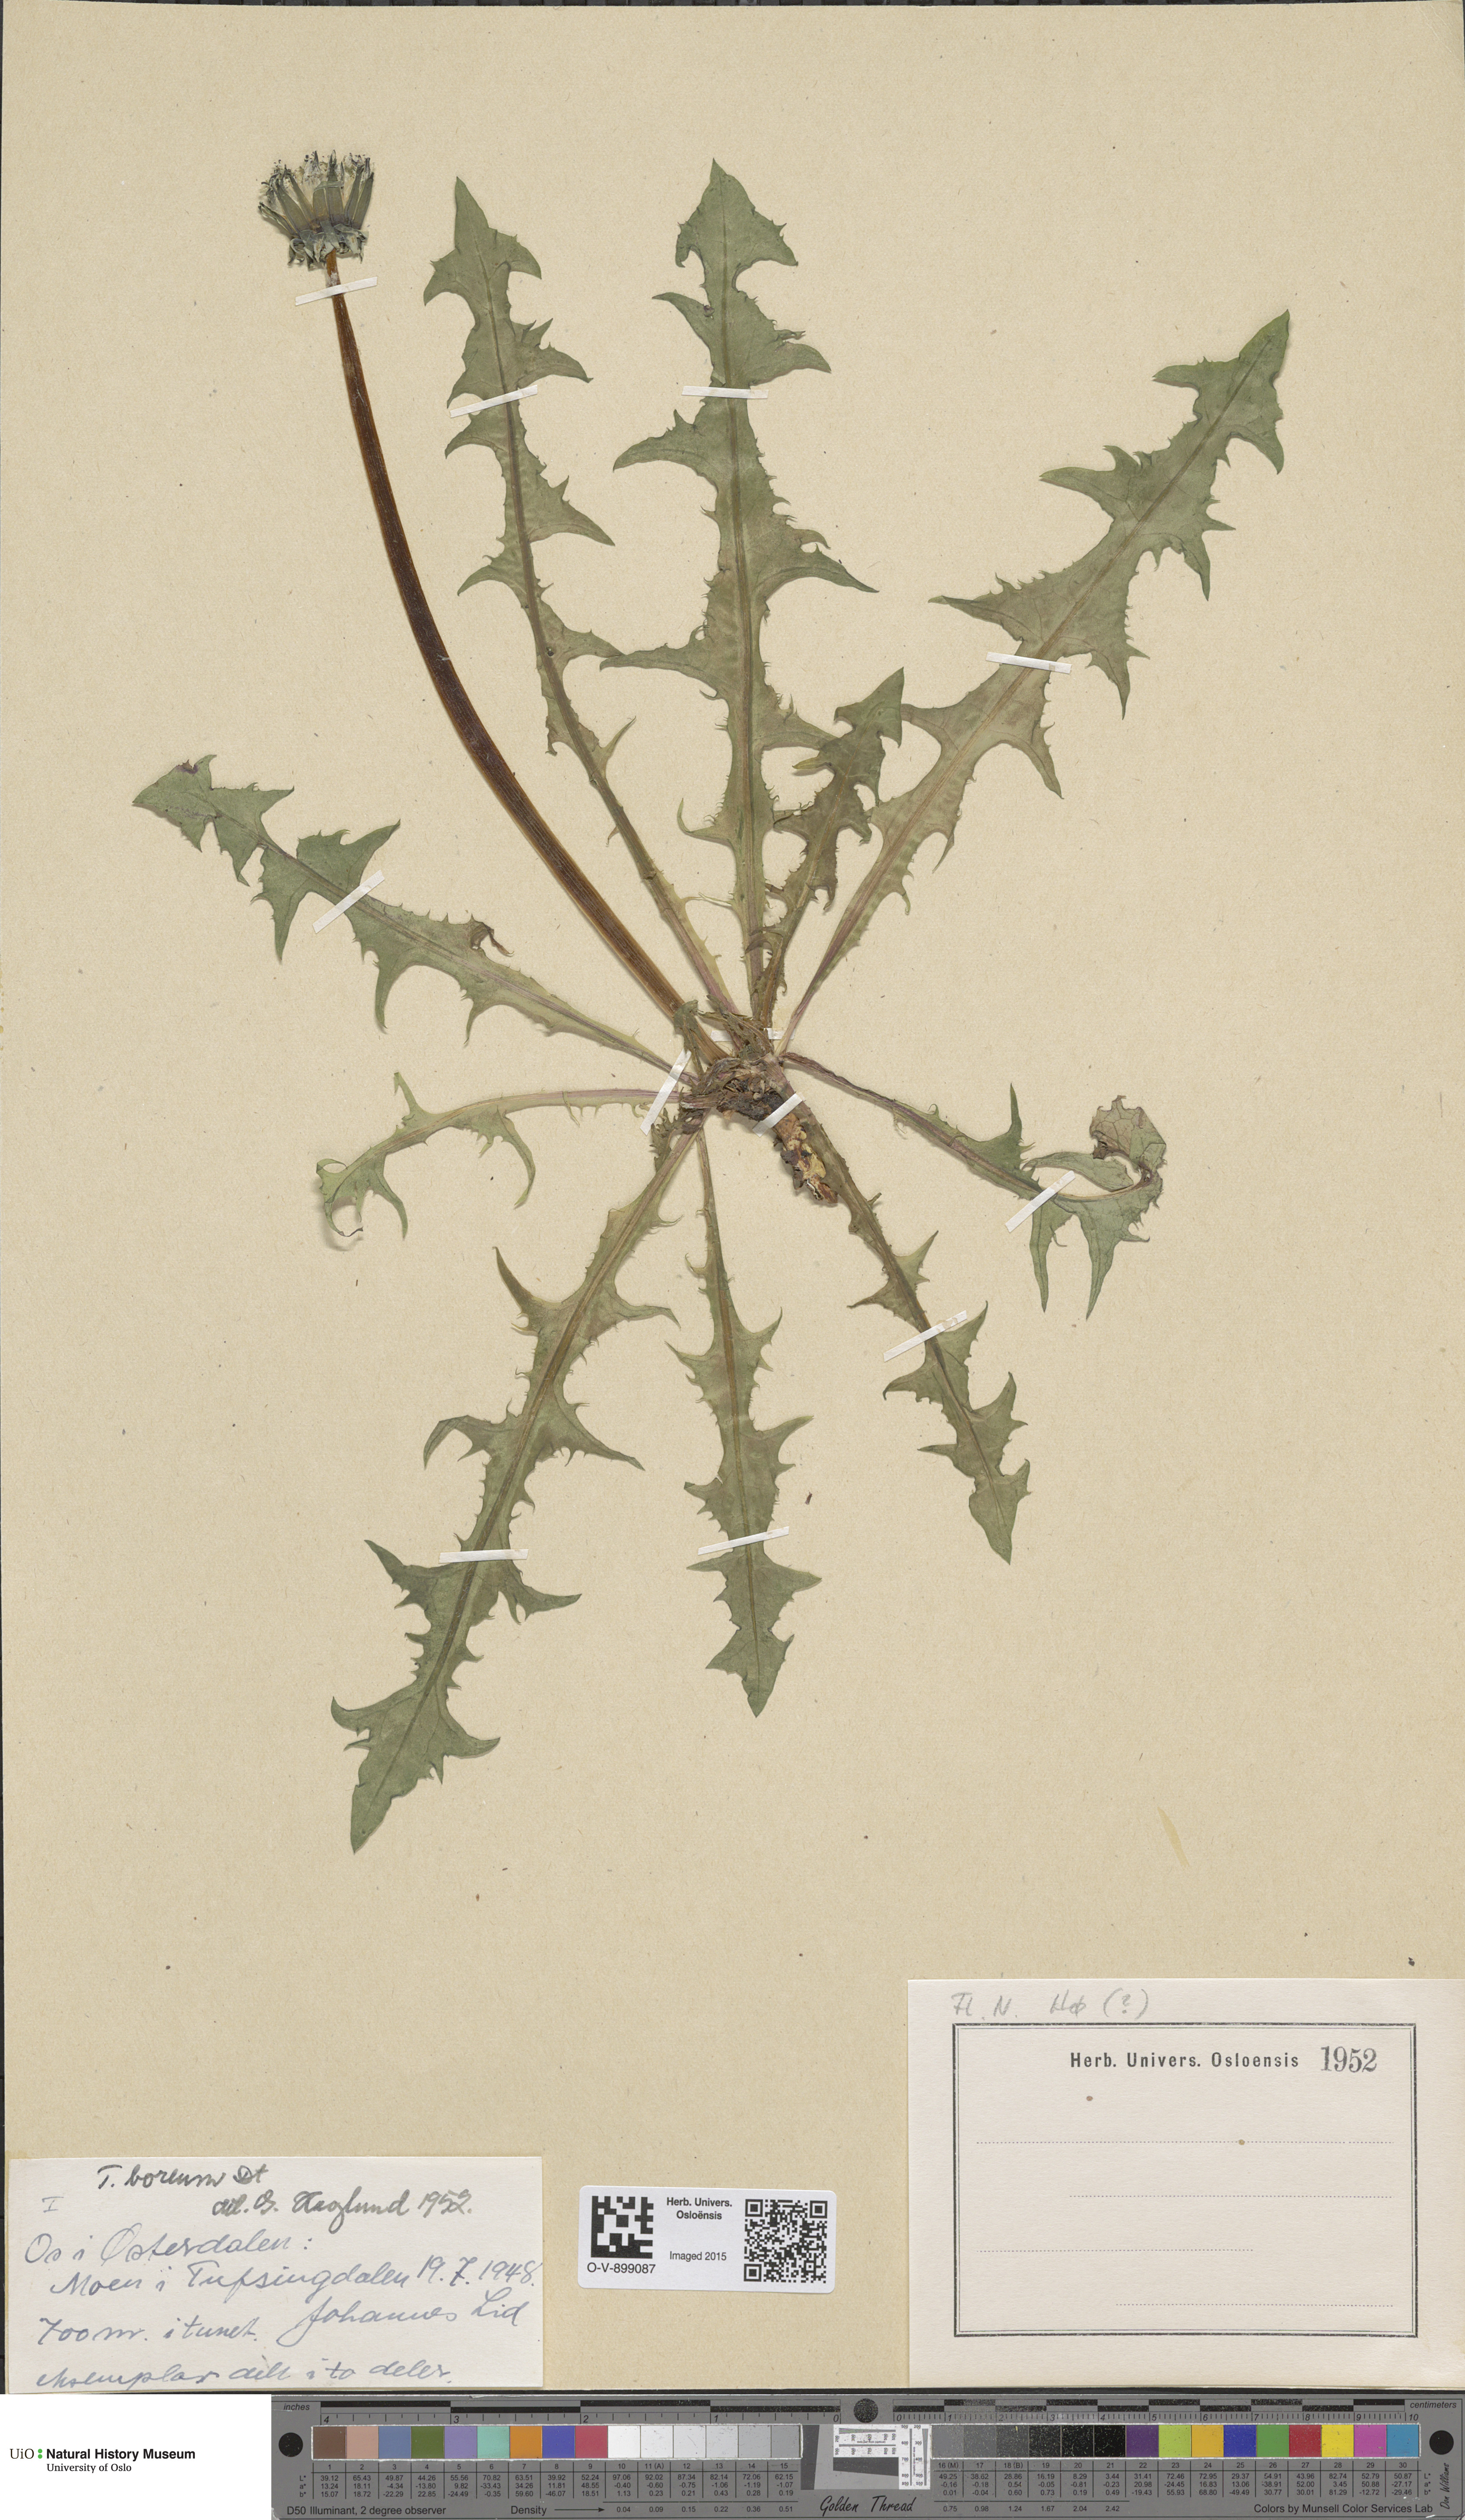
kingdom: Plantae
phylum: Tracheophyta
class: Magnoliopsida
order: Asterales
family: Asteraceae
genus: Taraxacum
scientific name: Taraxacum septentrionale
